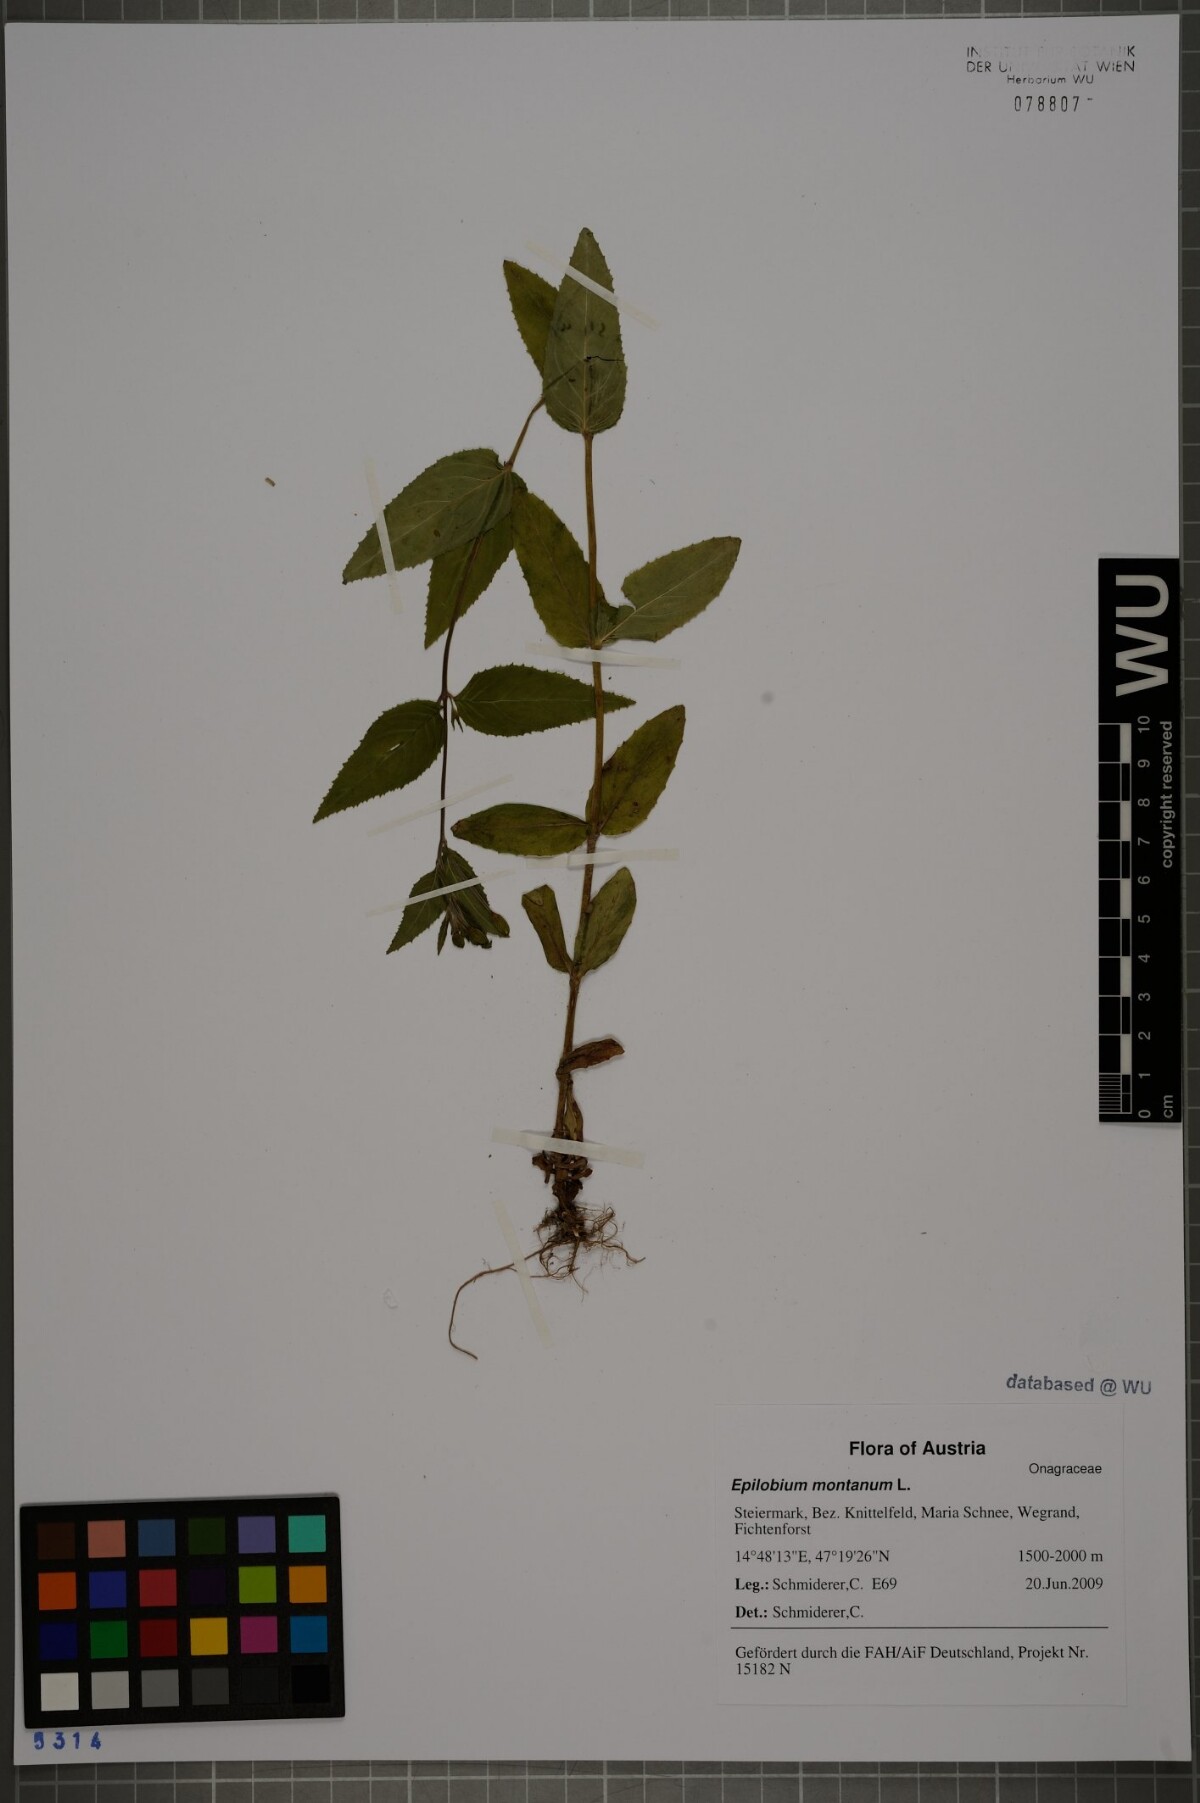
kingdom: Plantae
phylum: Tracheophyta
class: Magnoliopsida
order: Myrtales
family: Onagraceae
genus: Epilobium
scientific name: Epilobium montanum
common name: Broad-leaved willowherb
